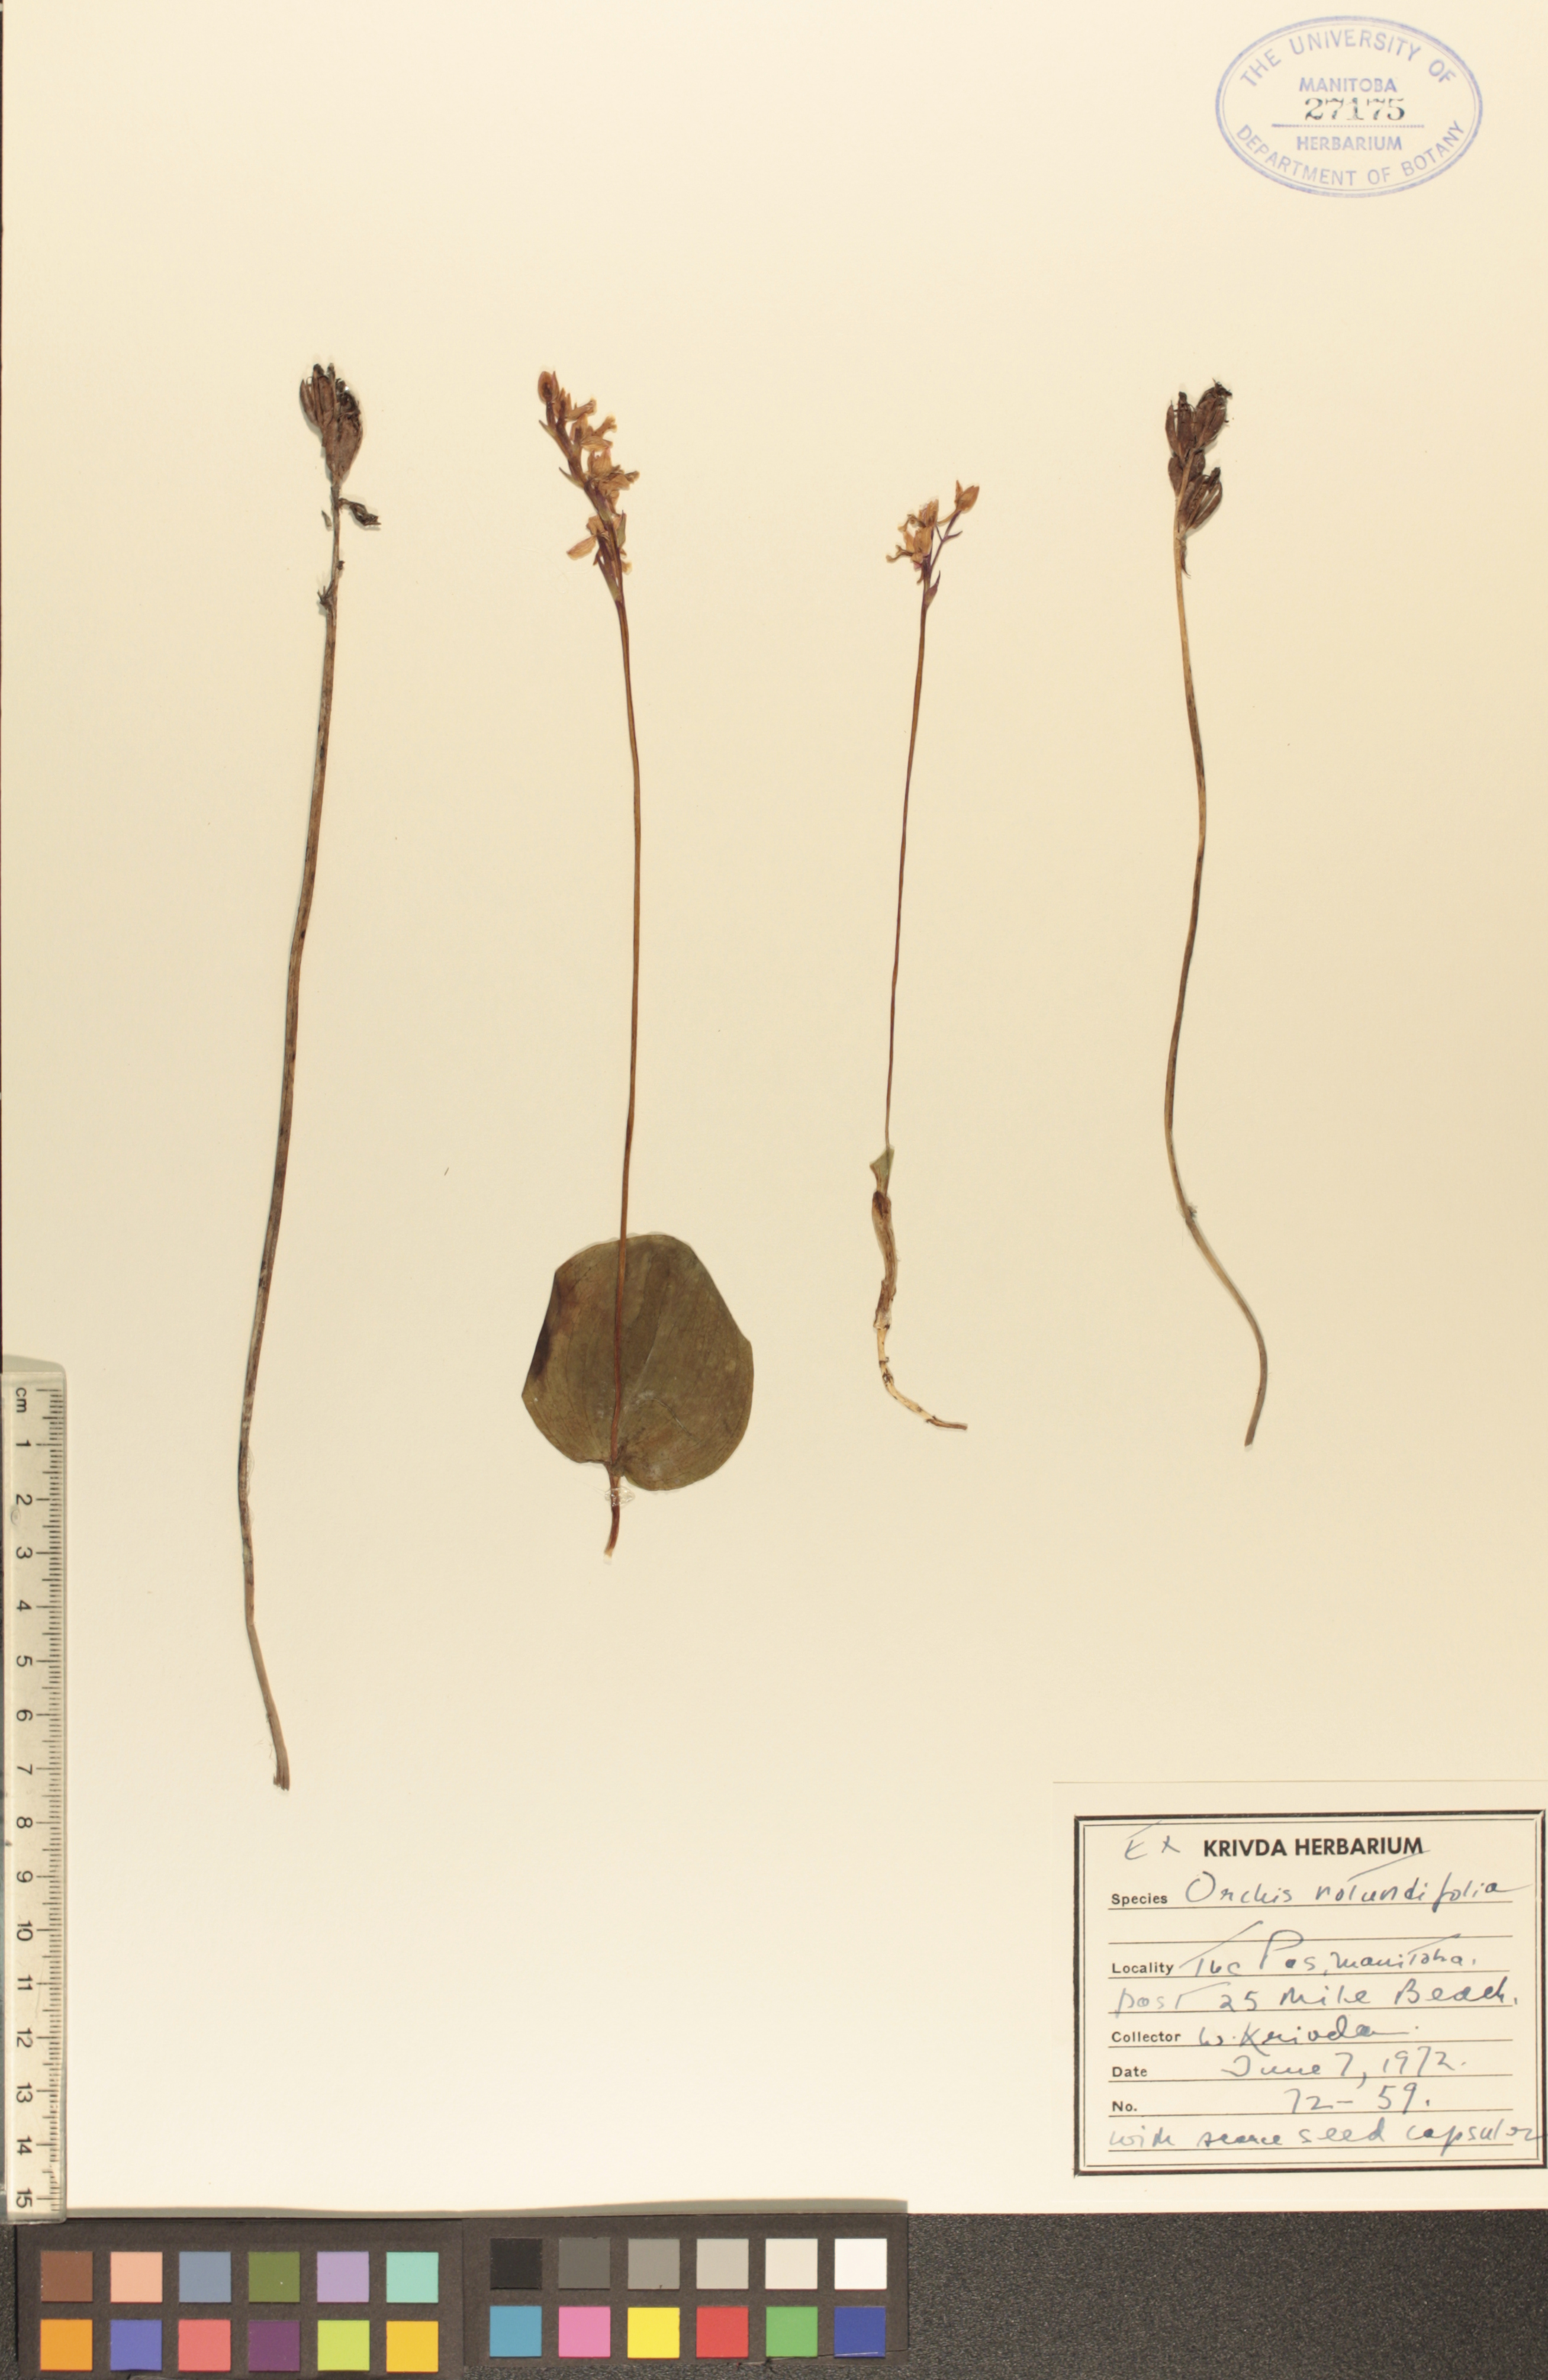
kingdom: Plantae
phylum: Tracheophyta
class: Liliopsida
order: Asparagales
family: Orchidaceae
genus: Galearis
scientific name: Galearis rotundifolia
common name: One-leaved orchis
